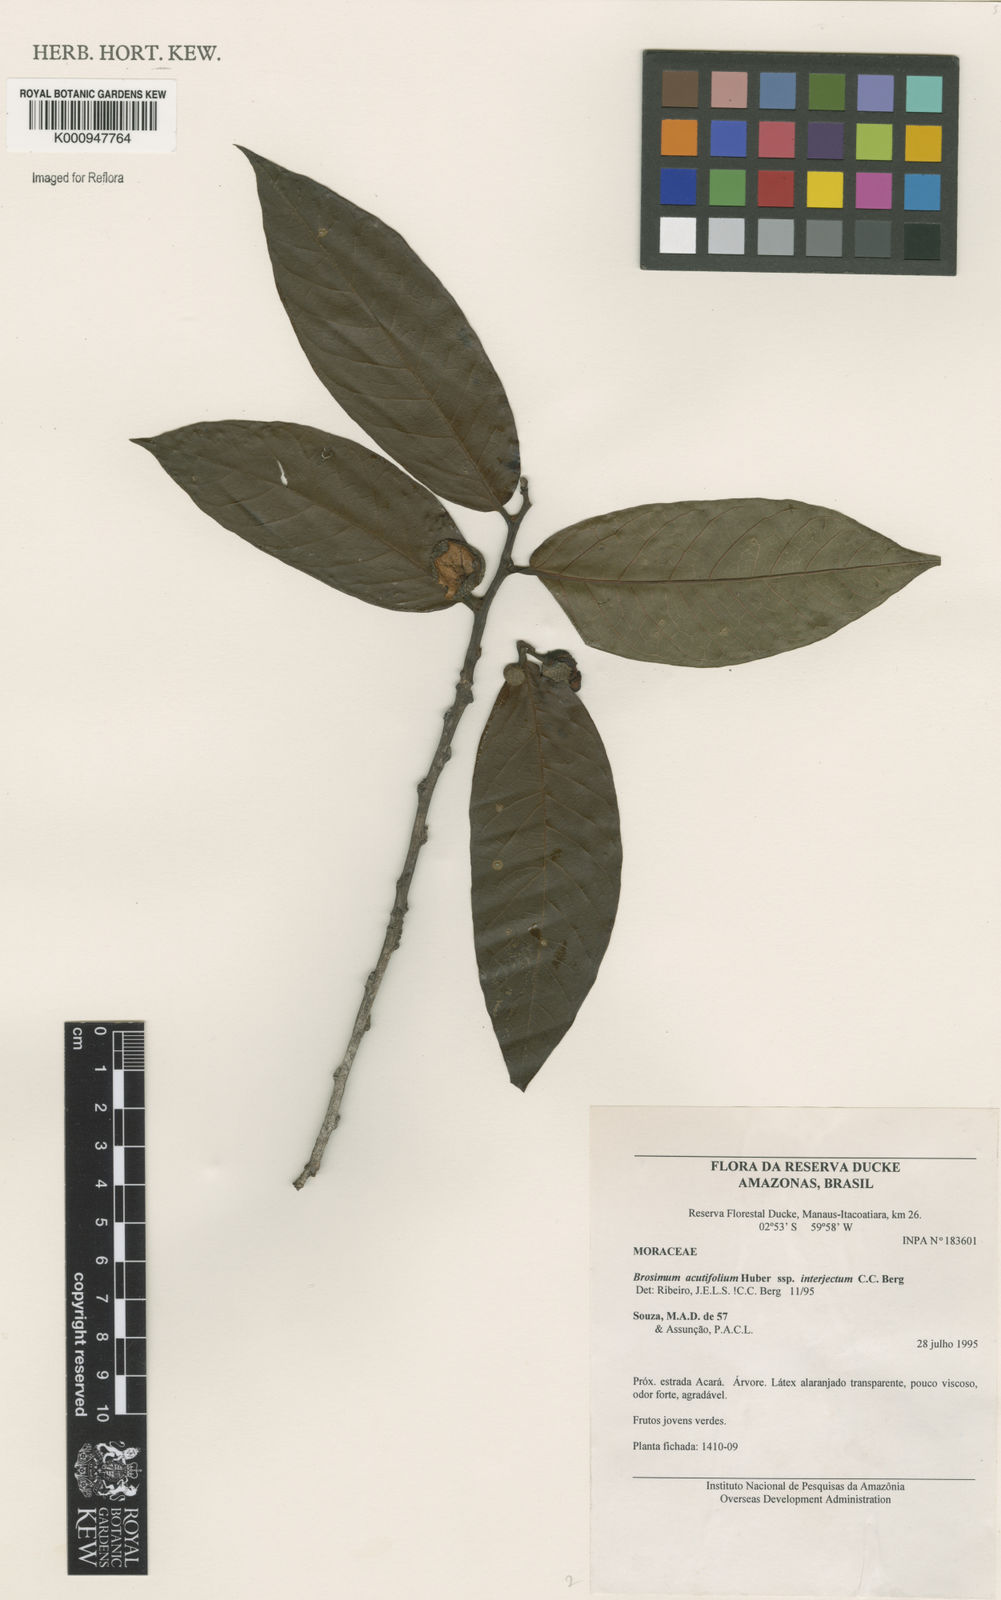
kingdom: Plantae
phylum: Tracheophyta
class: Magnoliopsida
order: Rosales
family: Moraceae
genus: Brosimum
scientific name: Brosimum acutifolium
